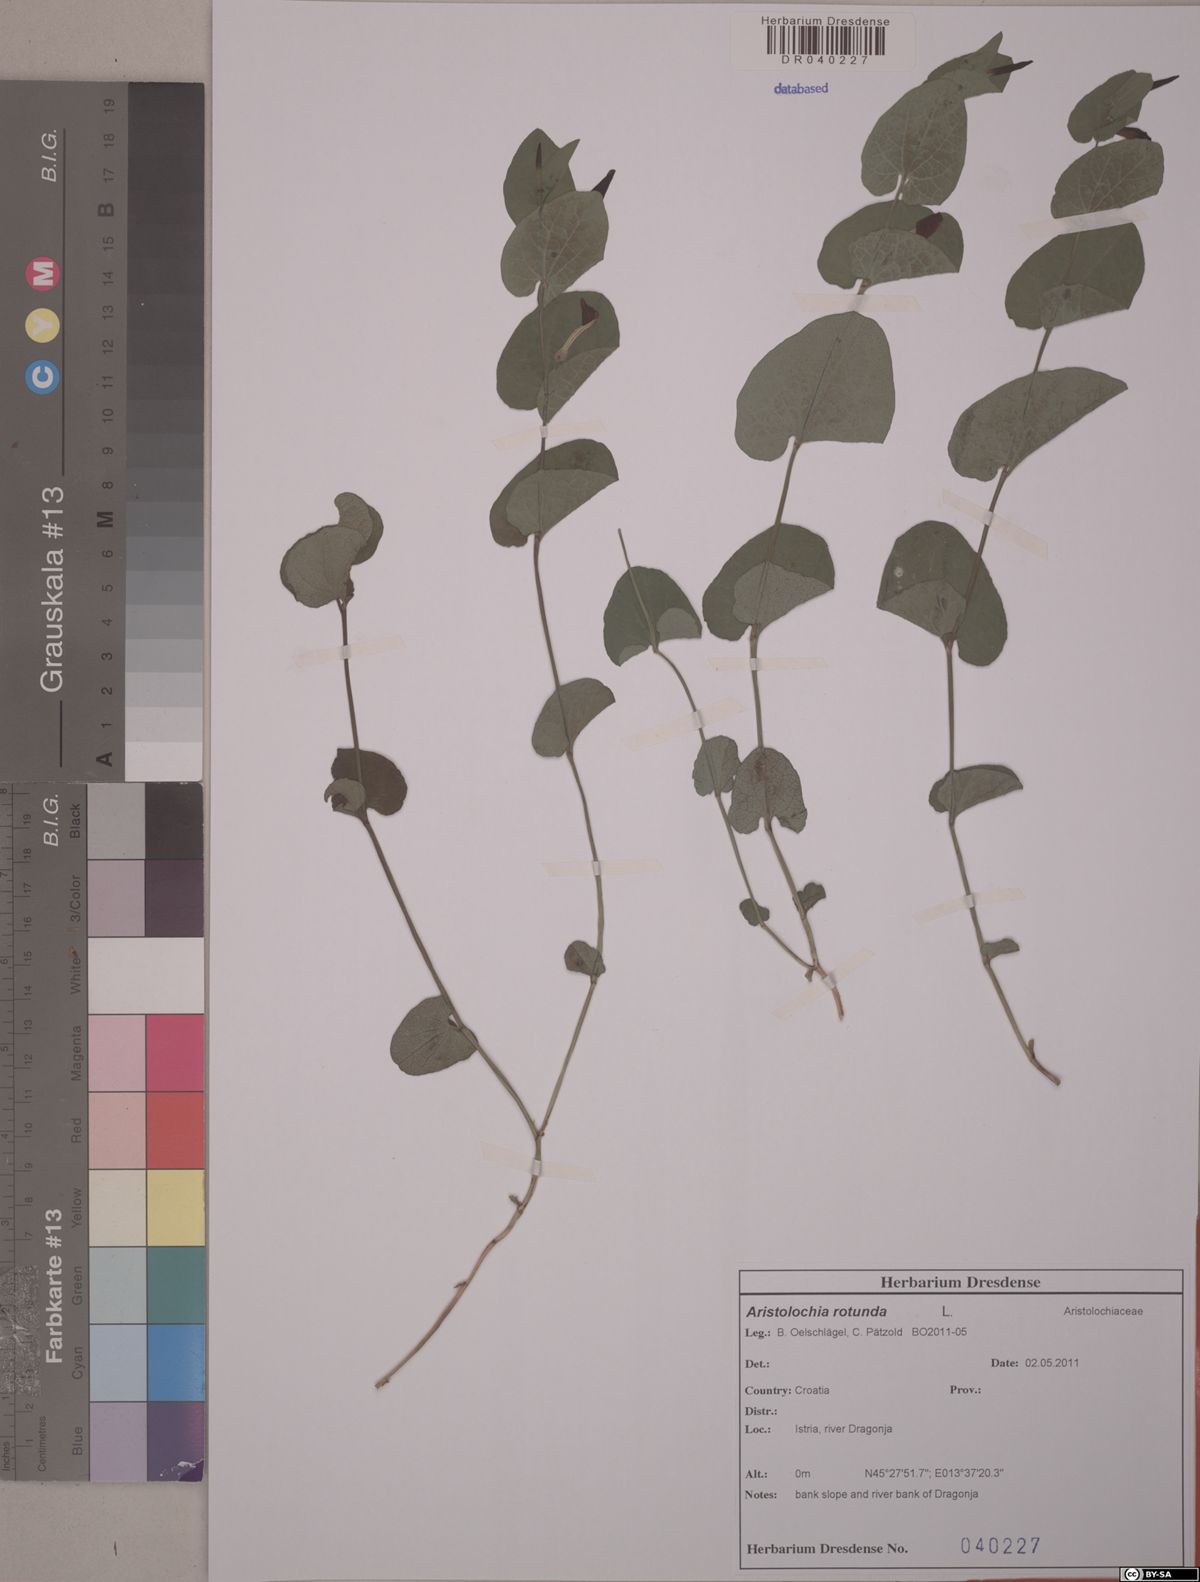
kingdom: Plantae
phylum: Tracheophyta
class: Magnoliopsida
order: Piperales
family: Aristolochiaceae
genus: Aristolochia
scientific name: Aristolochia rotunda
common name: Smearwort
